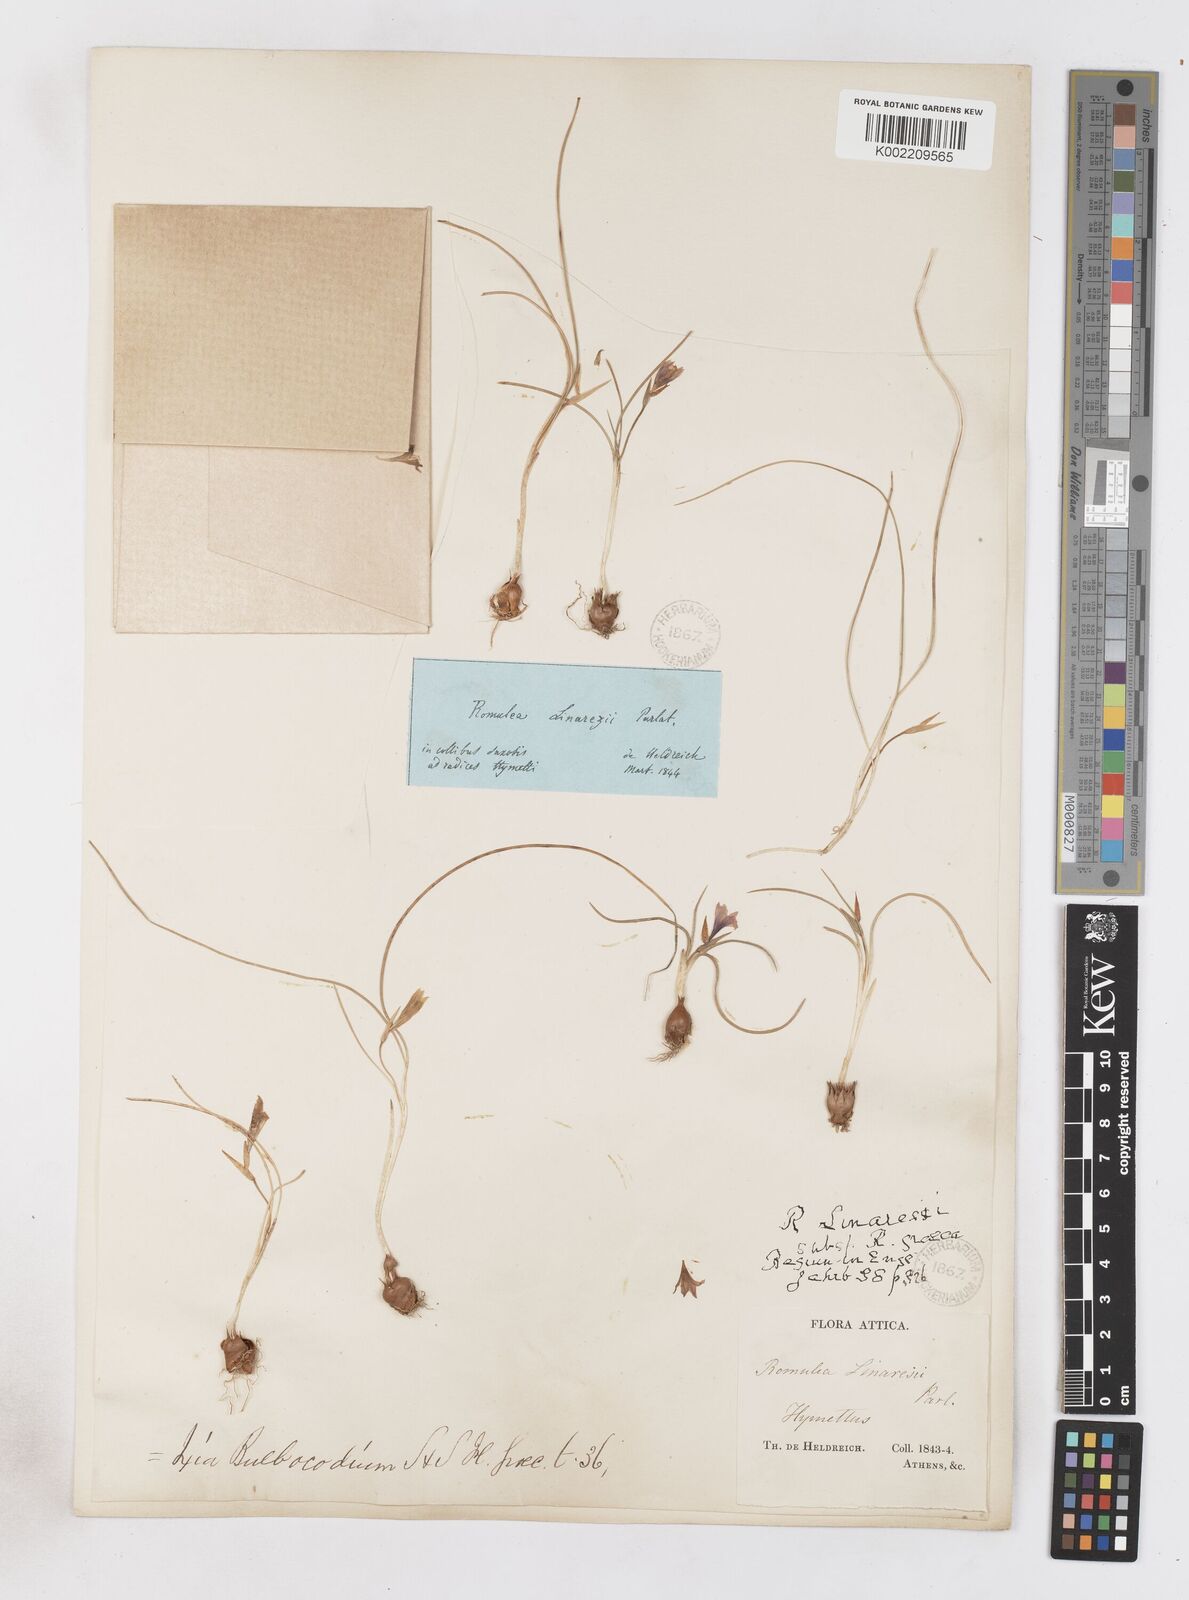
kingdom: Plantae
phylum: Tracheophyta
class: Liliopsida
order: Asparagales
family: Iridaceae
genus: Romulea
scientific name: Romulea linaresii
